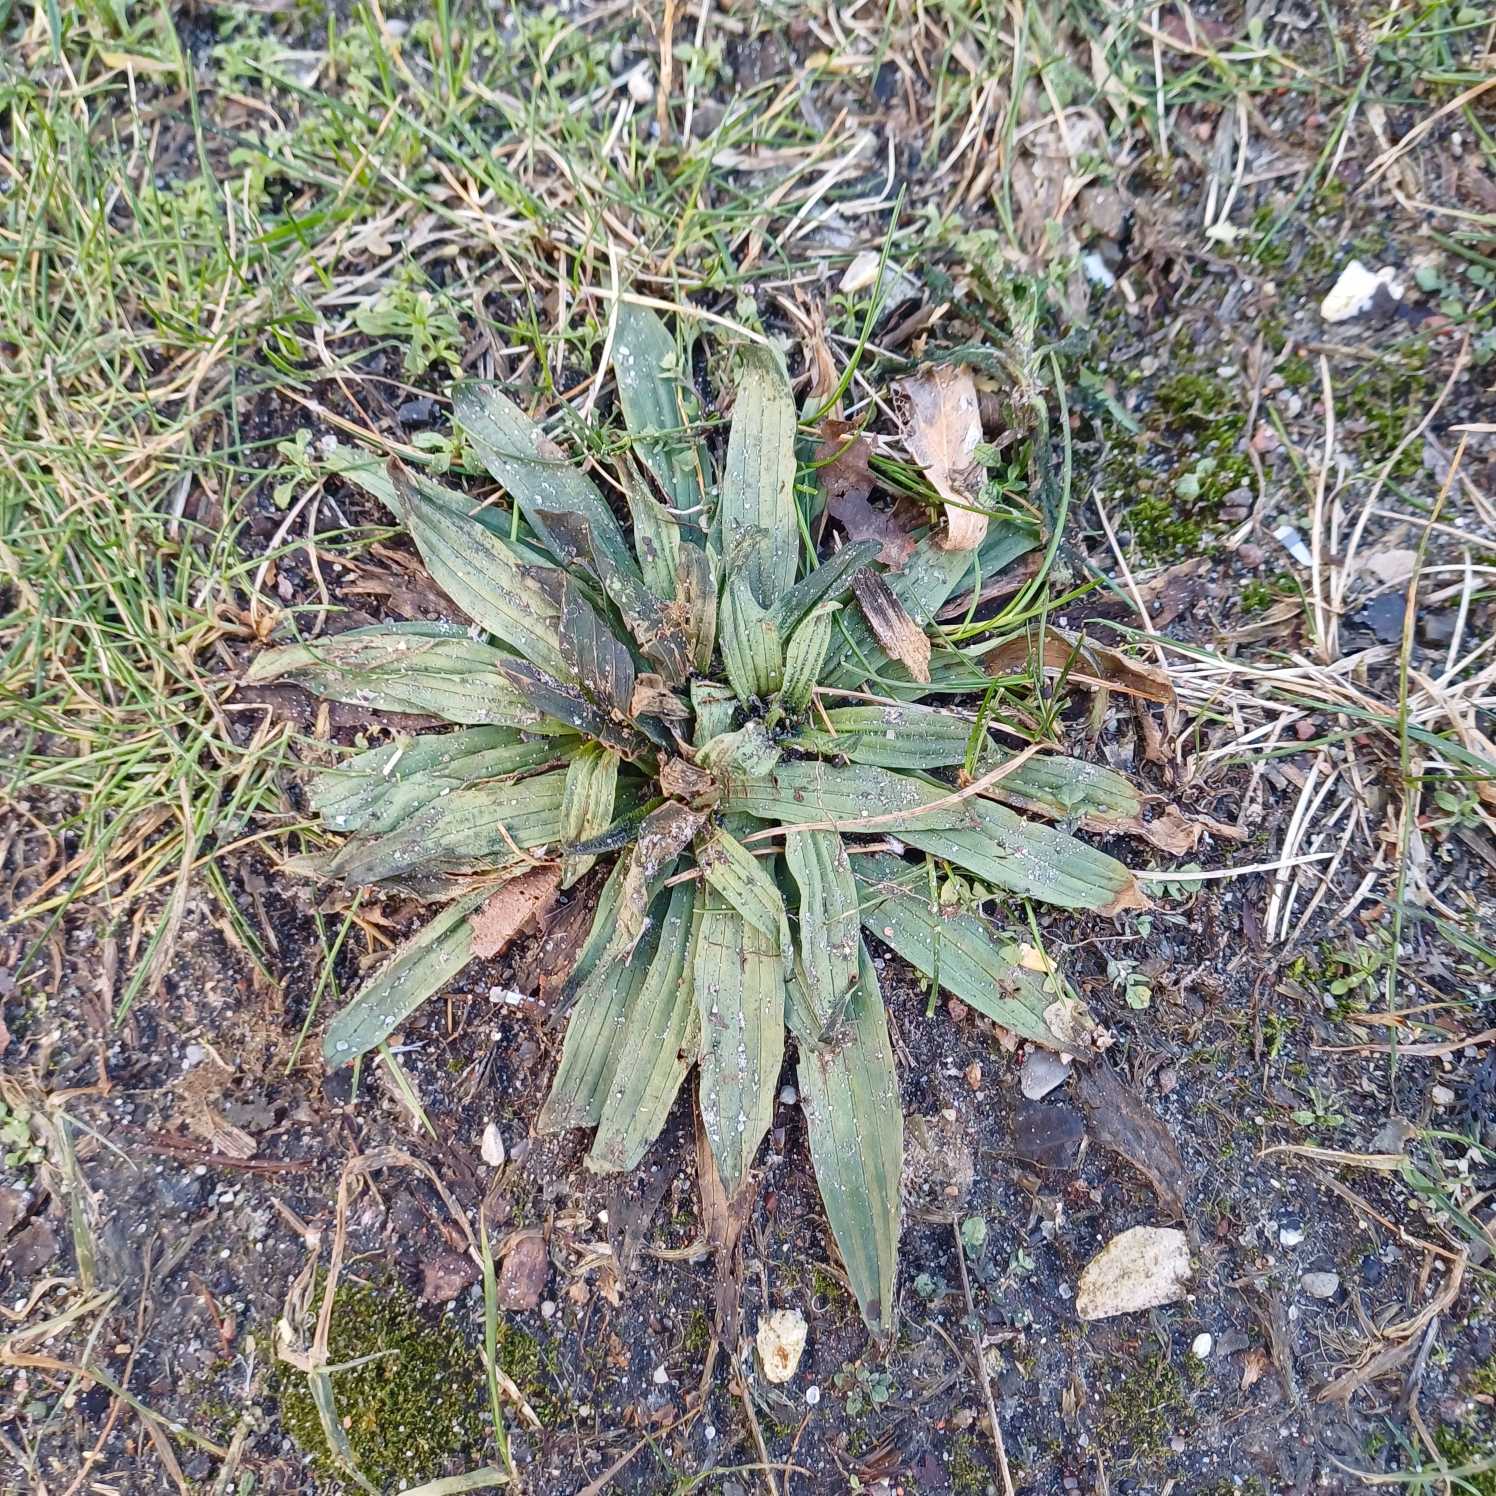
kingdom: Plantae
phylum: Tracheophyta
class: Magnoliopsida
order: Lamiales
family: Plantaginaceae
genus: Plantago
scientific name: Plantago lanceolata
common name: Lancet-vejbred
